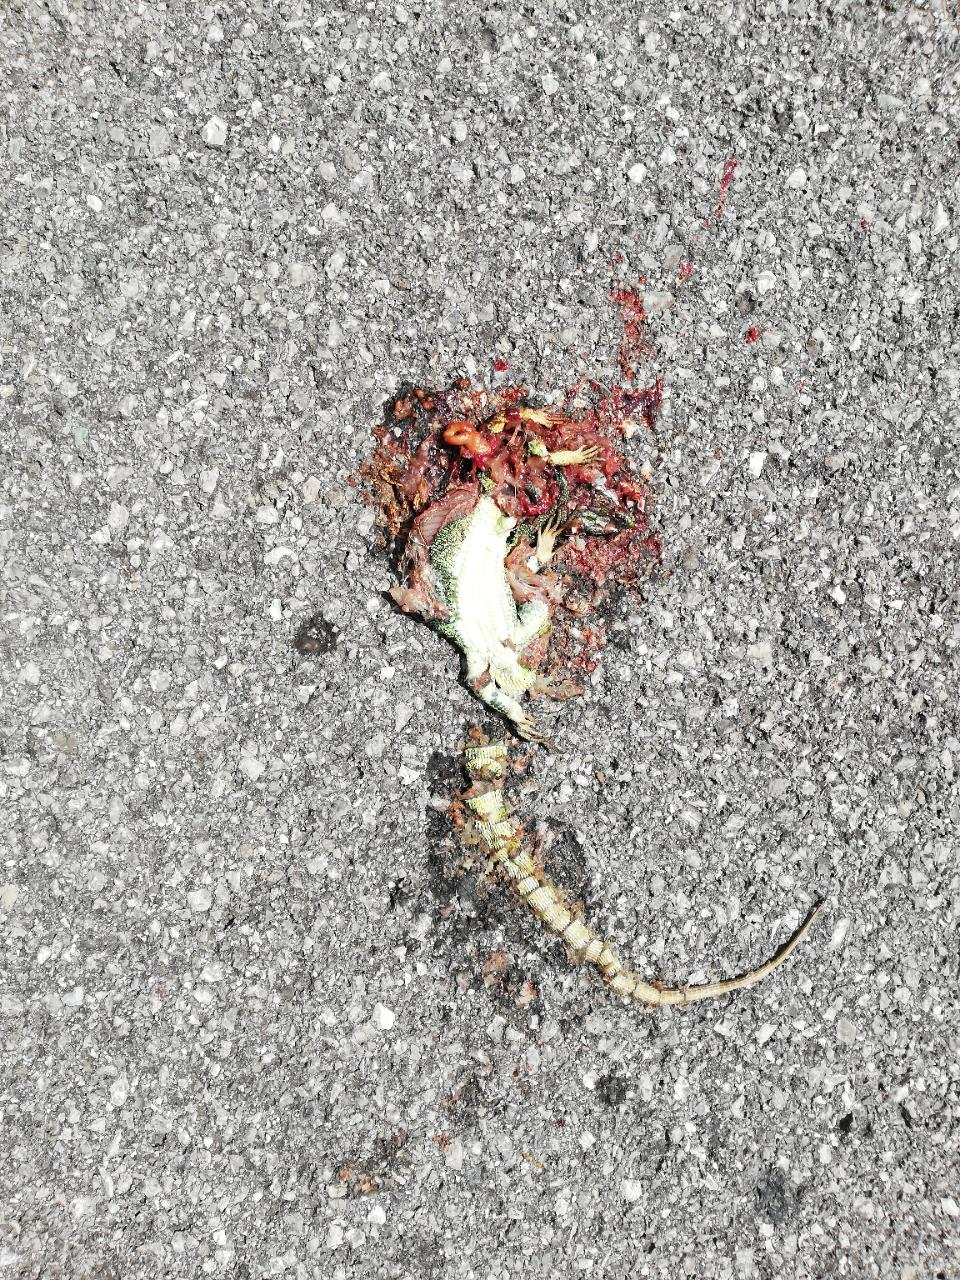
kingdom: Animalia
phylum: Chordata
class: Squamata
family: Lacertidae
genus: Lacerta
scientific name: Lacerta viridis
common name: European green lizard
